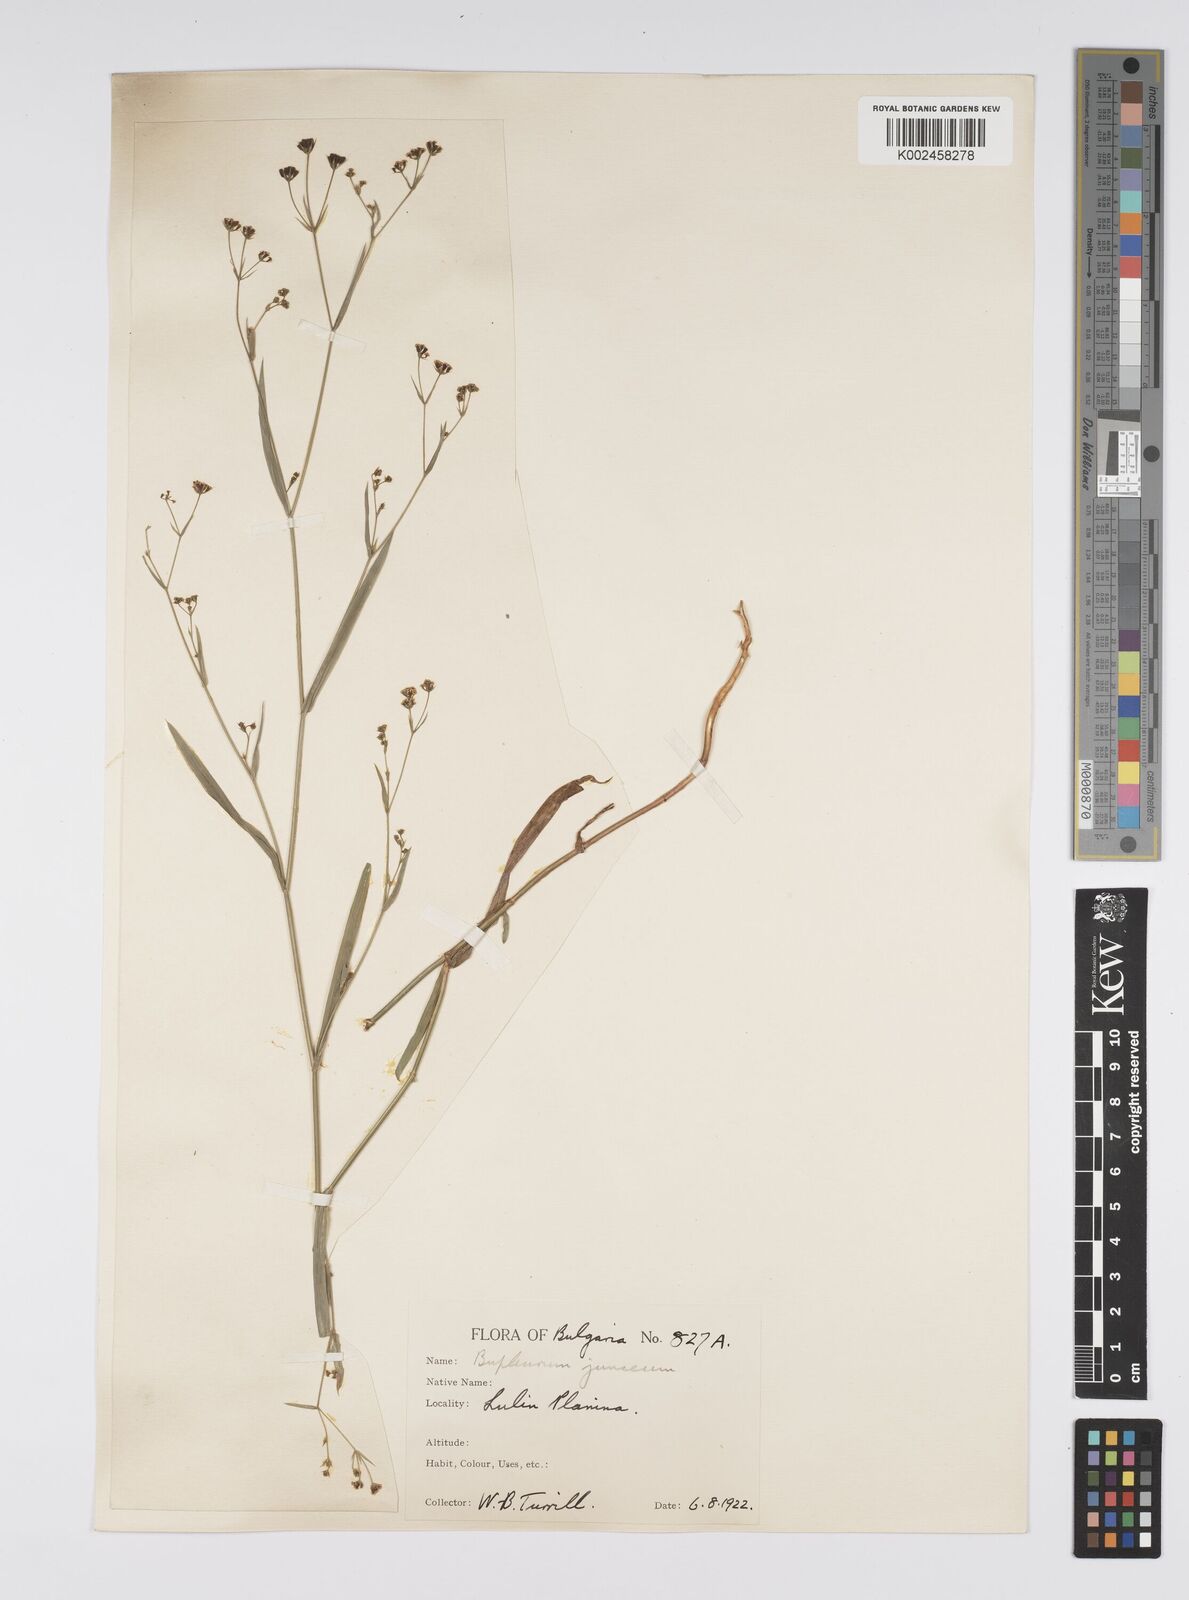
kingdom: Plantae
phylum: Tracheophyta
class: Magnoliopsida
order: Apiales
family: Apiaceae
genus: Bupleurum
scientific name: Bupleurum praealtum
